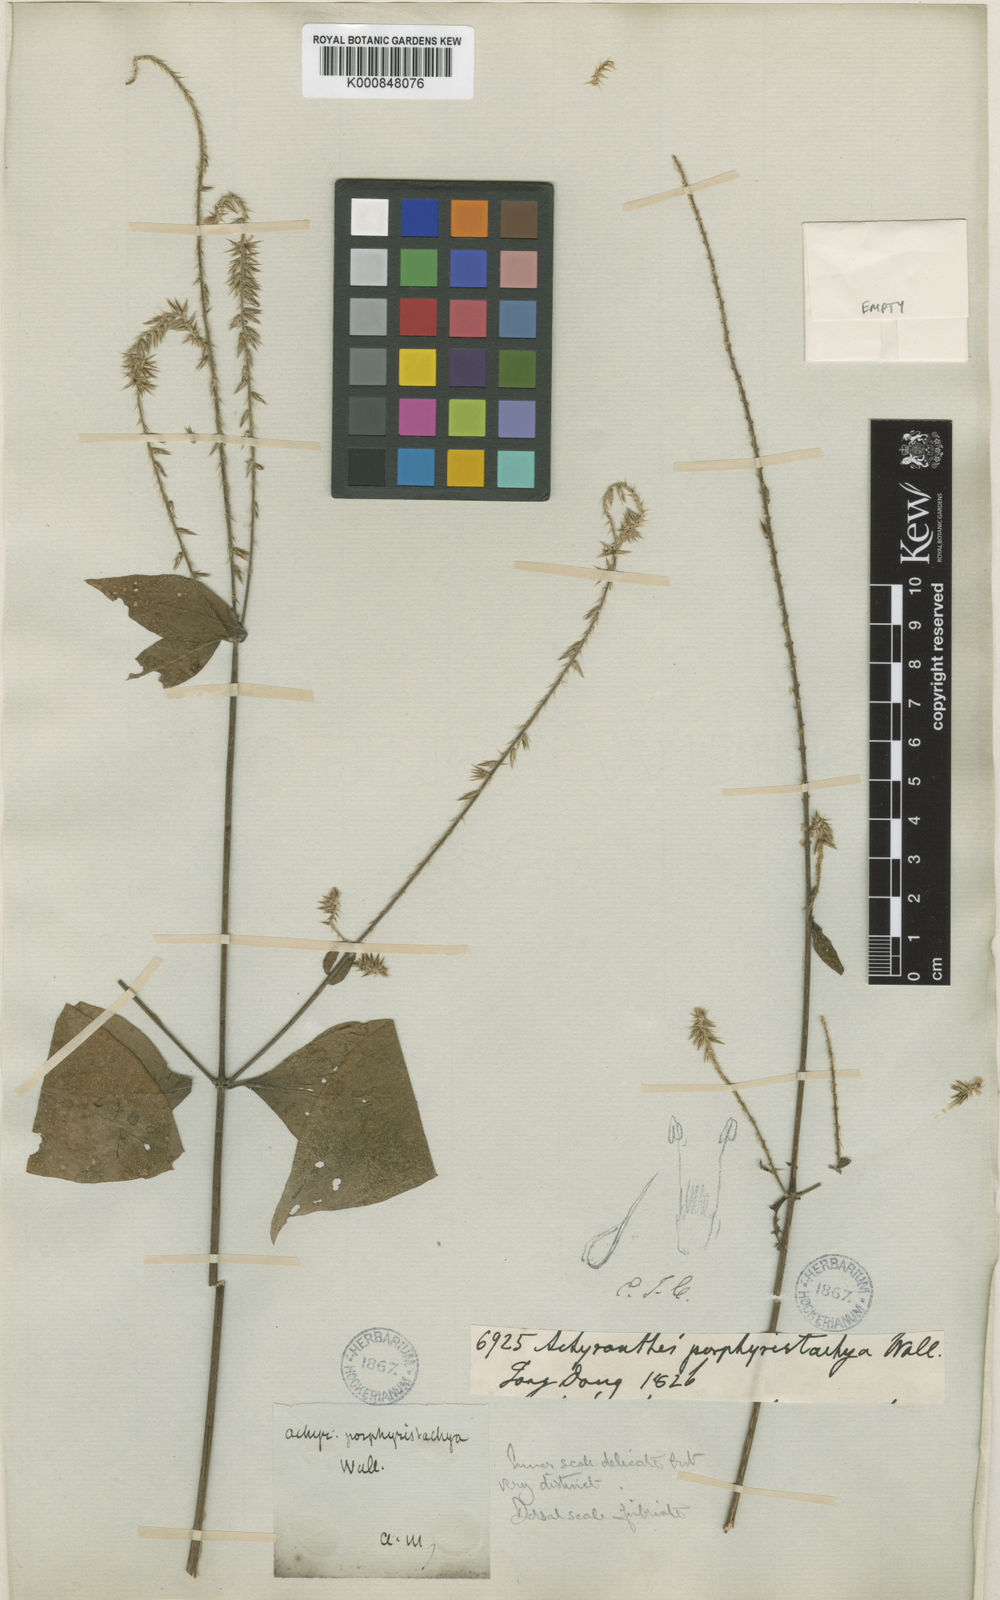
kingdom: Plantae
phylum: Tracheophyta
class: Magnoliopsida
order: Caryophyllales
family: Amaranthaceae
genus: Achyranthes
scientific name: Achyranthes coynei
